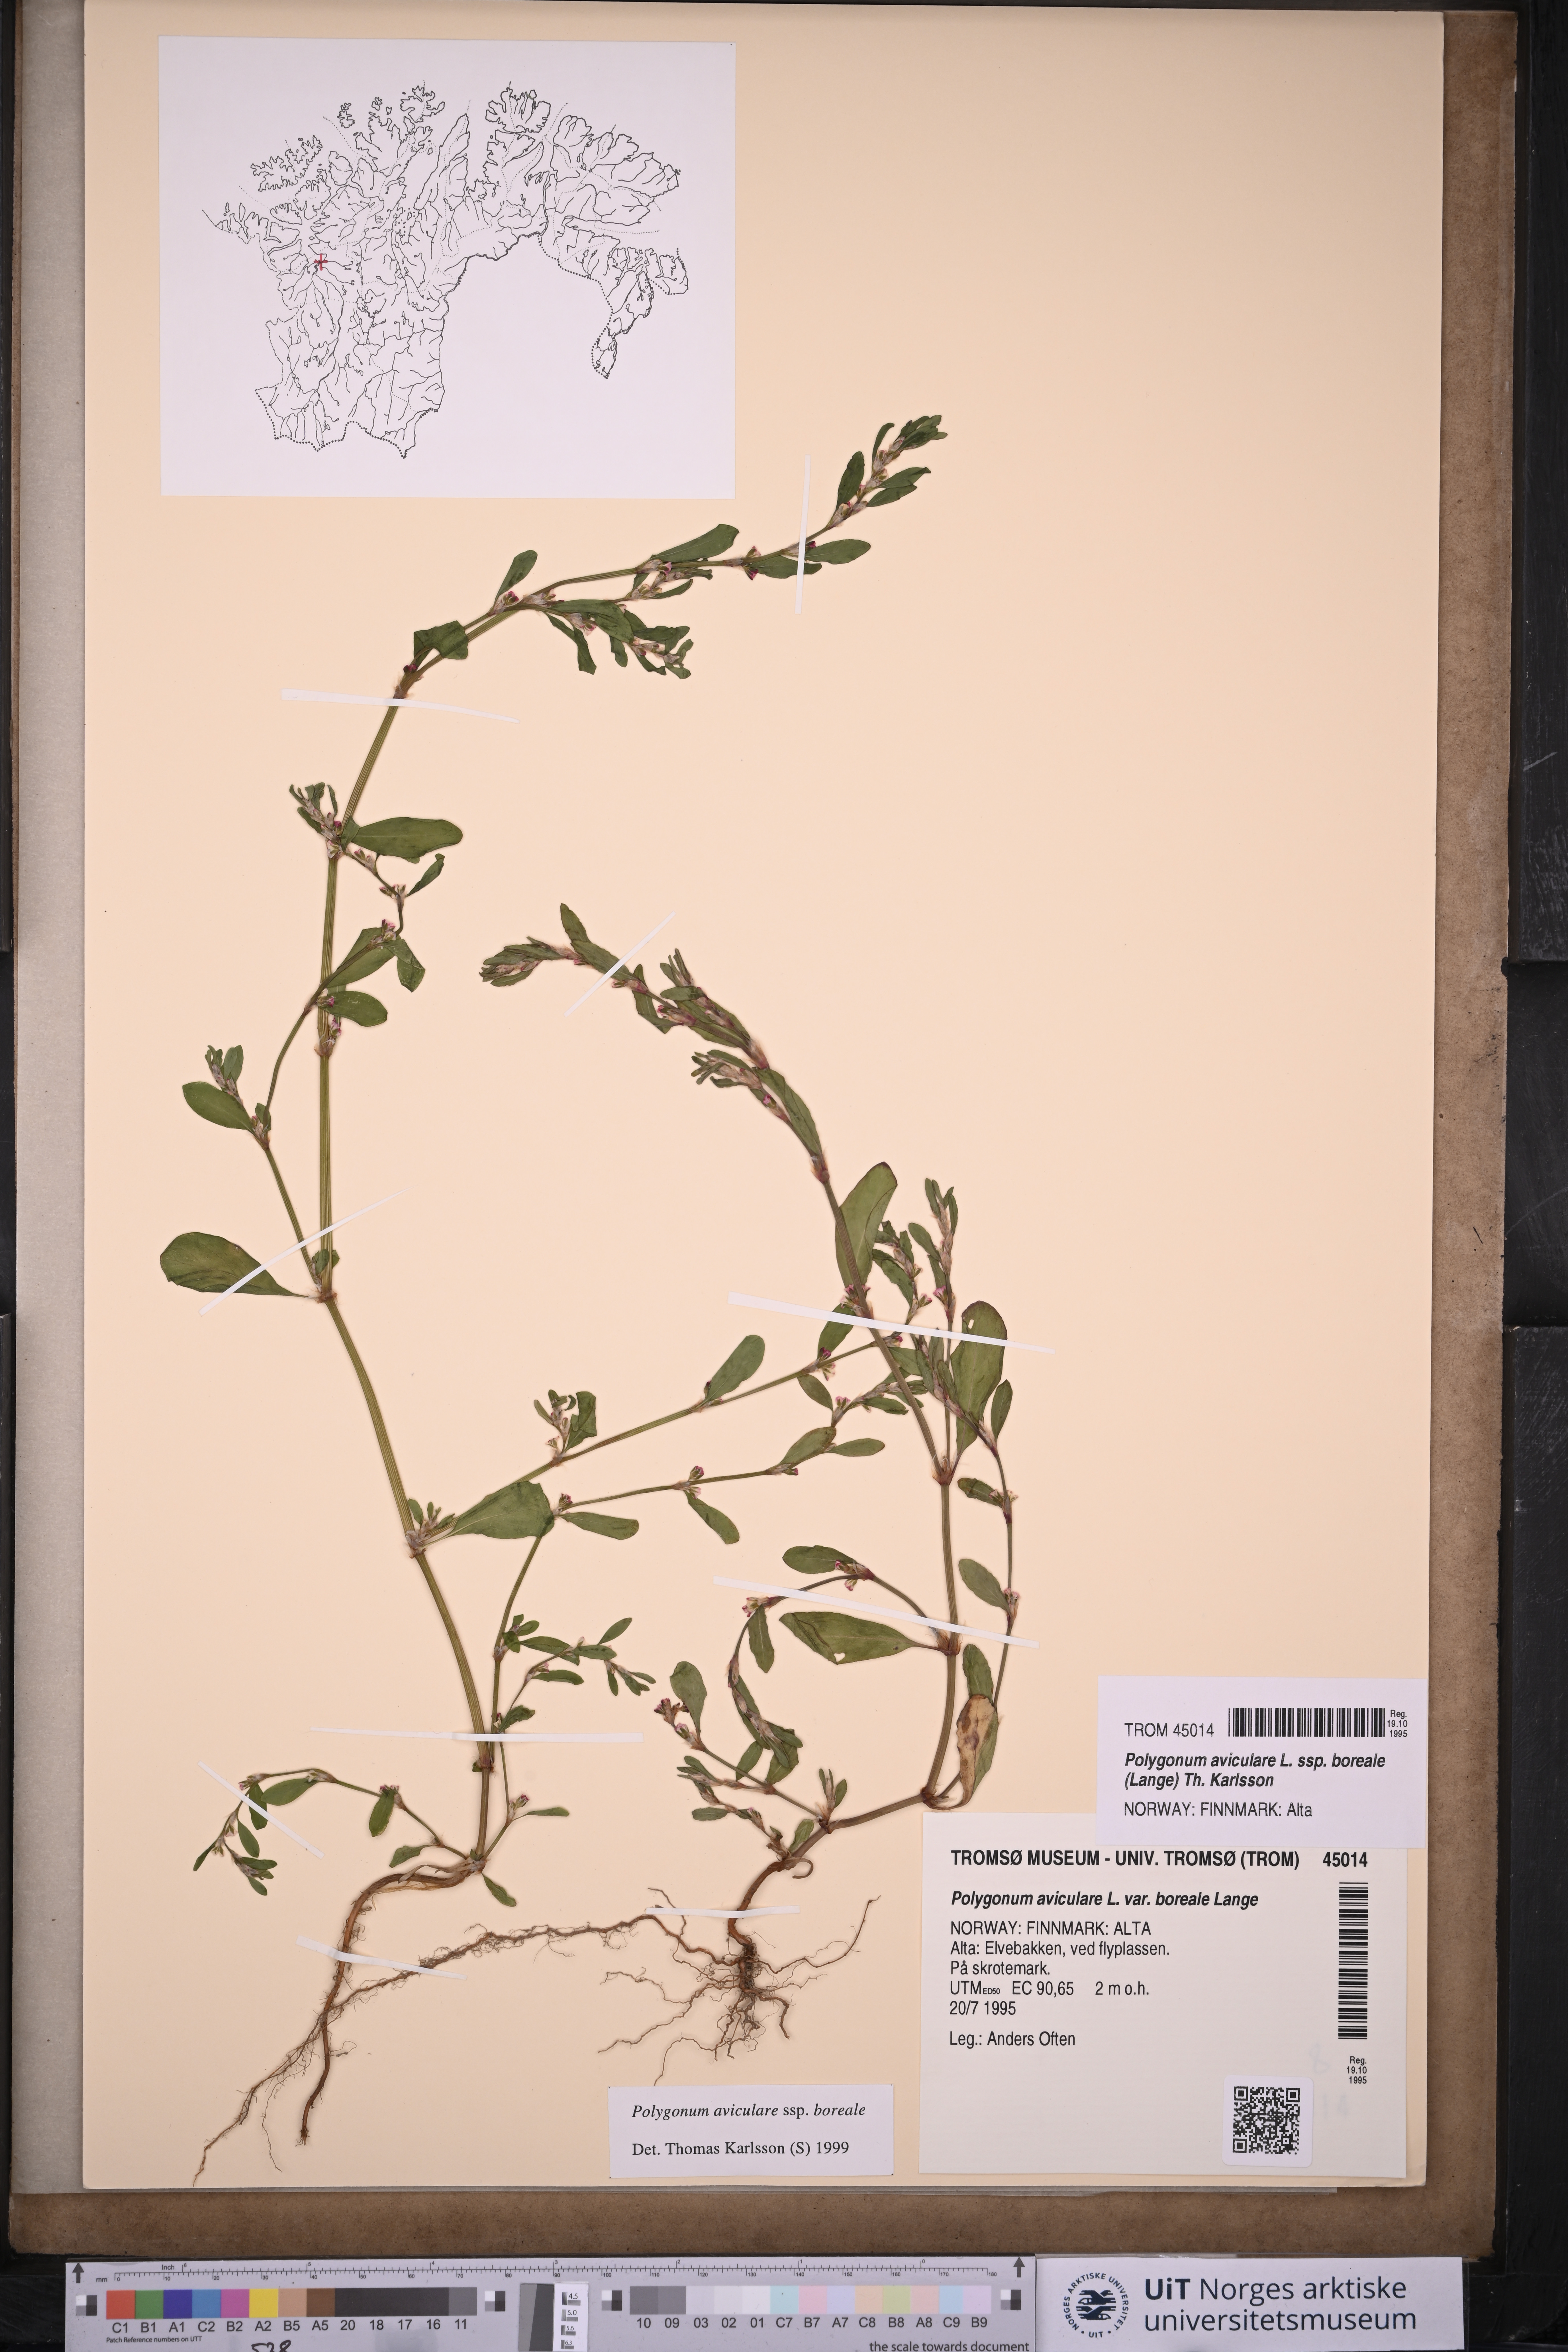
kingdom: Plantae
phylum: Tracheophyta
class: Magnoliopsida
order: Caryophyllales
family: Polygonaceae
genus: Polygonum
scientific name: Polygonum boreale
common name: Northern knotgrass
